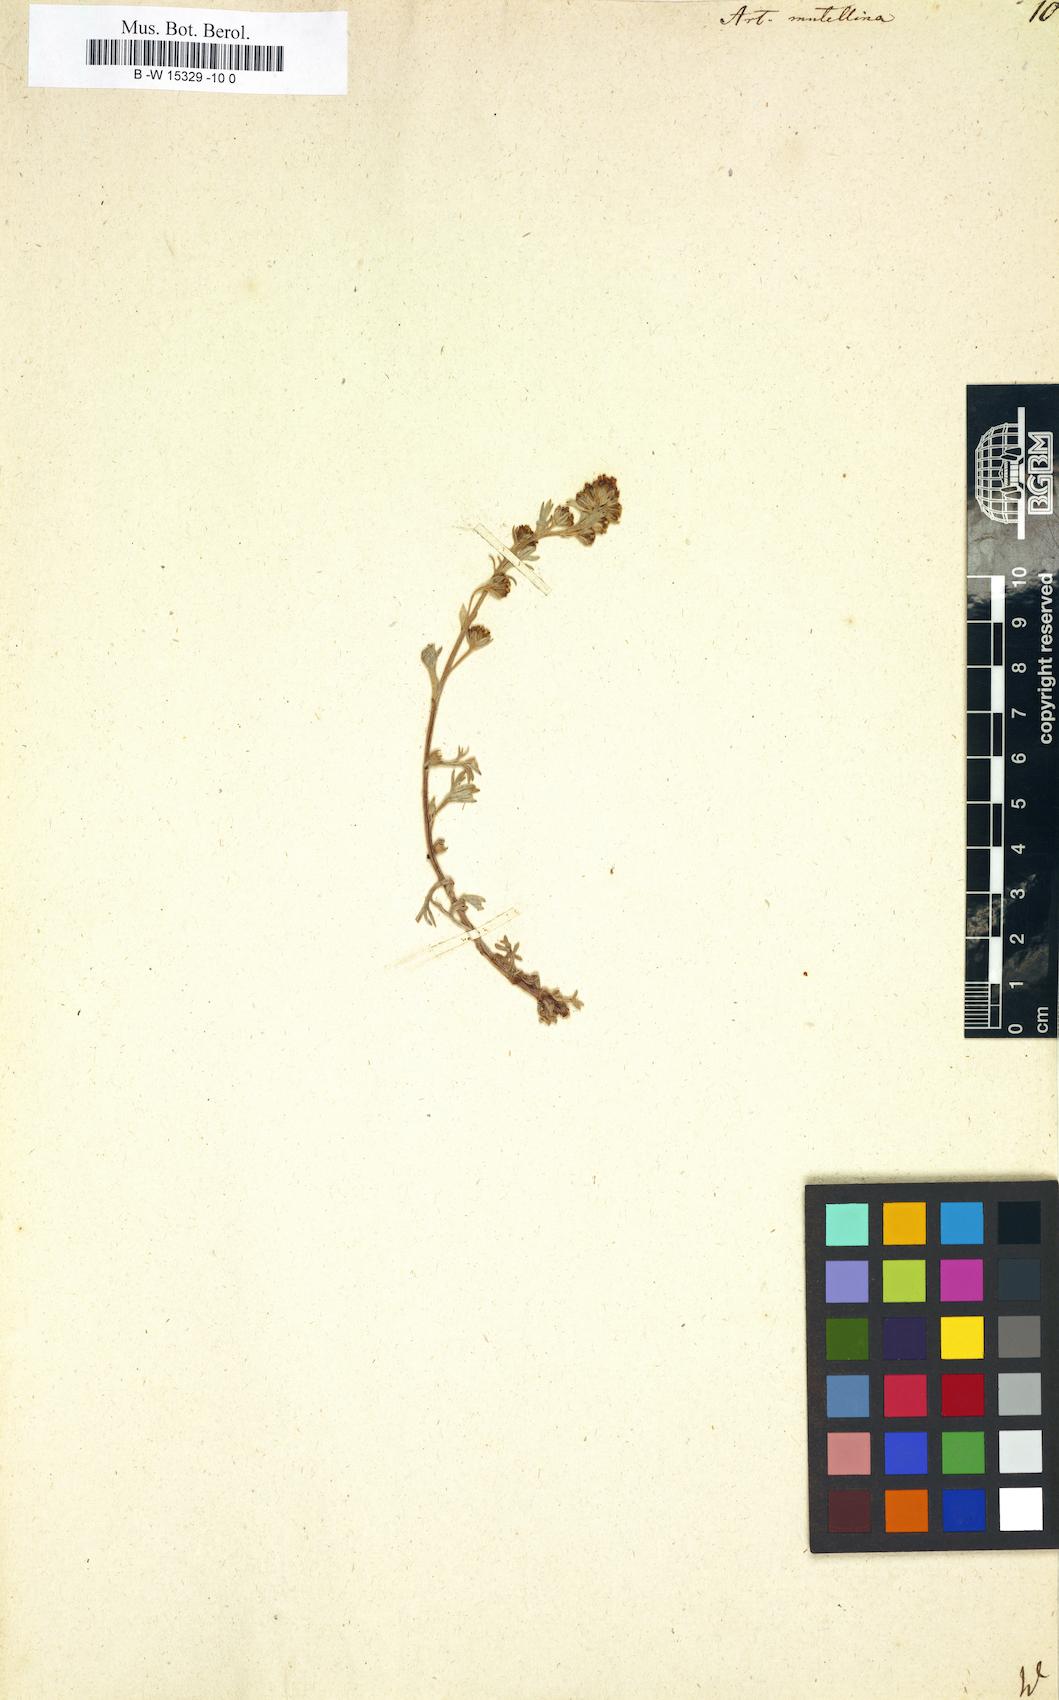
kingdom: Plantae
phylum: Tracheophyta
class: Magnoliopsida
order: Asterales
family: Asteraceae
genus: Artemisia
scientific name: Artemisia mutellina
